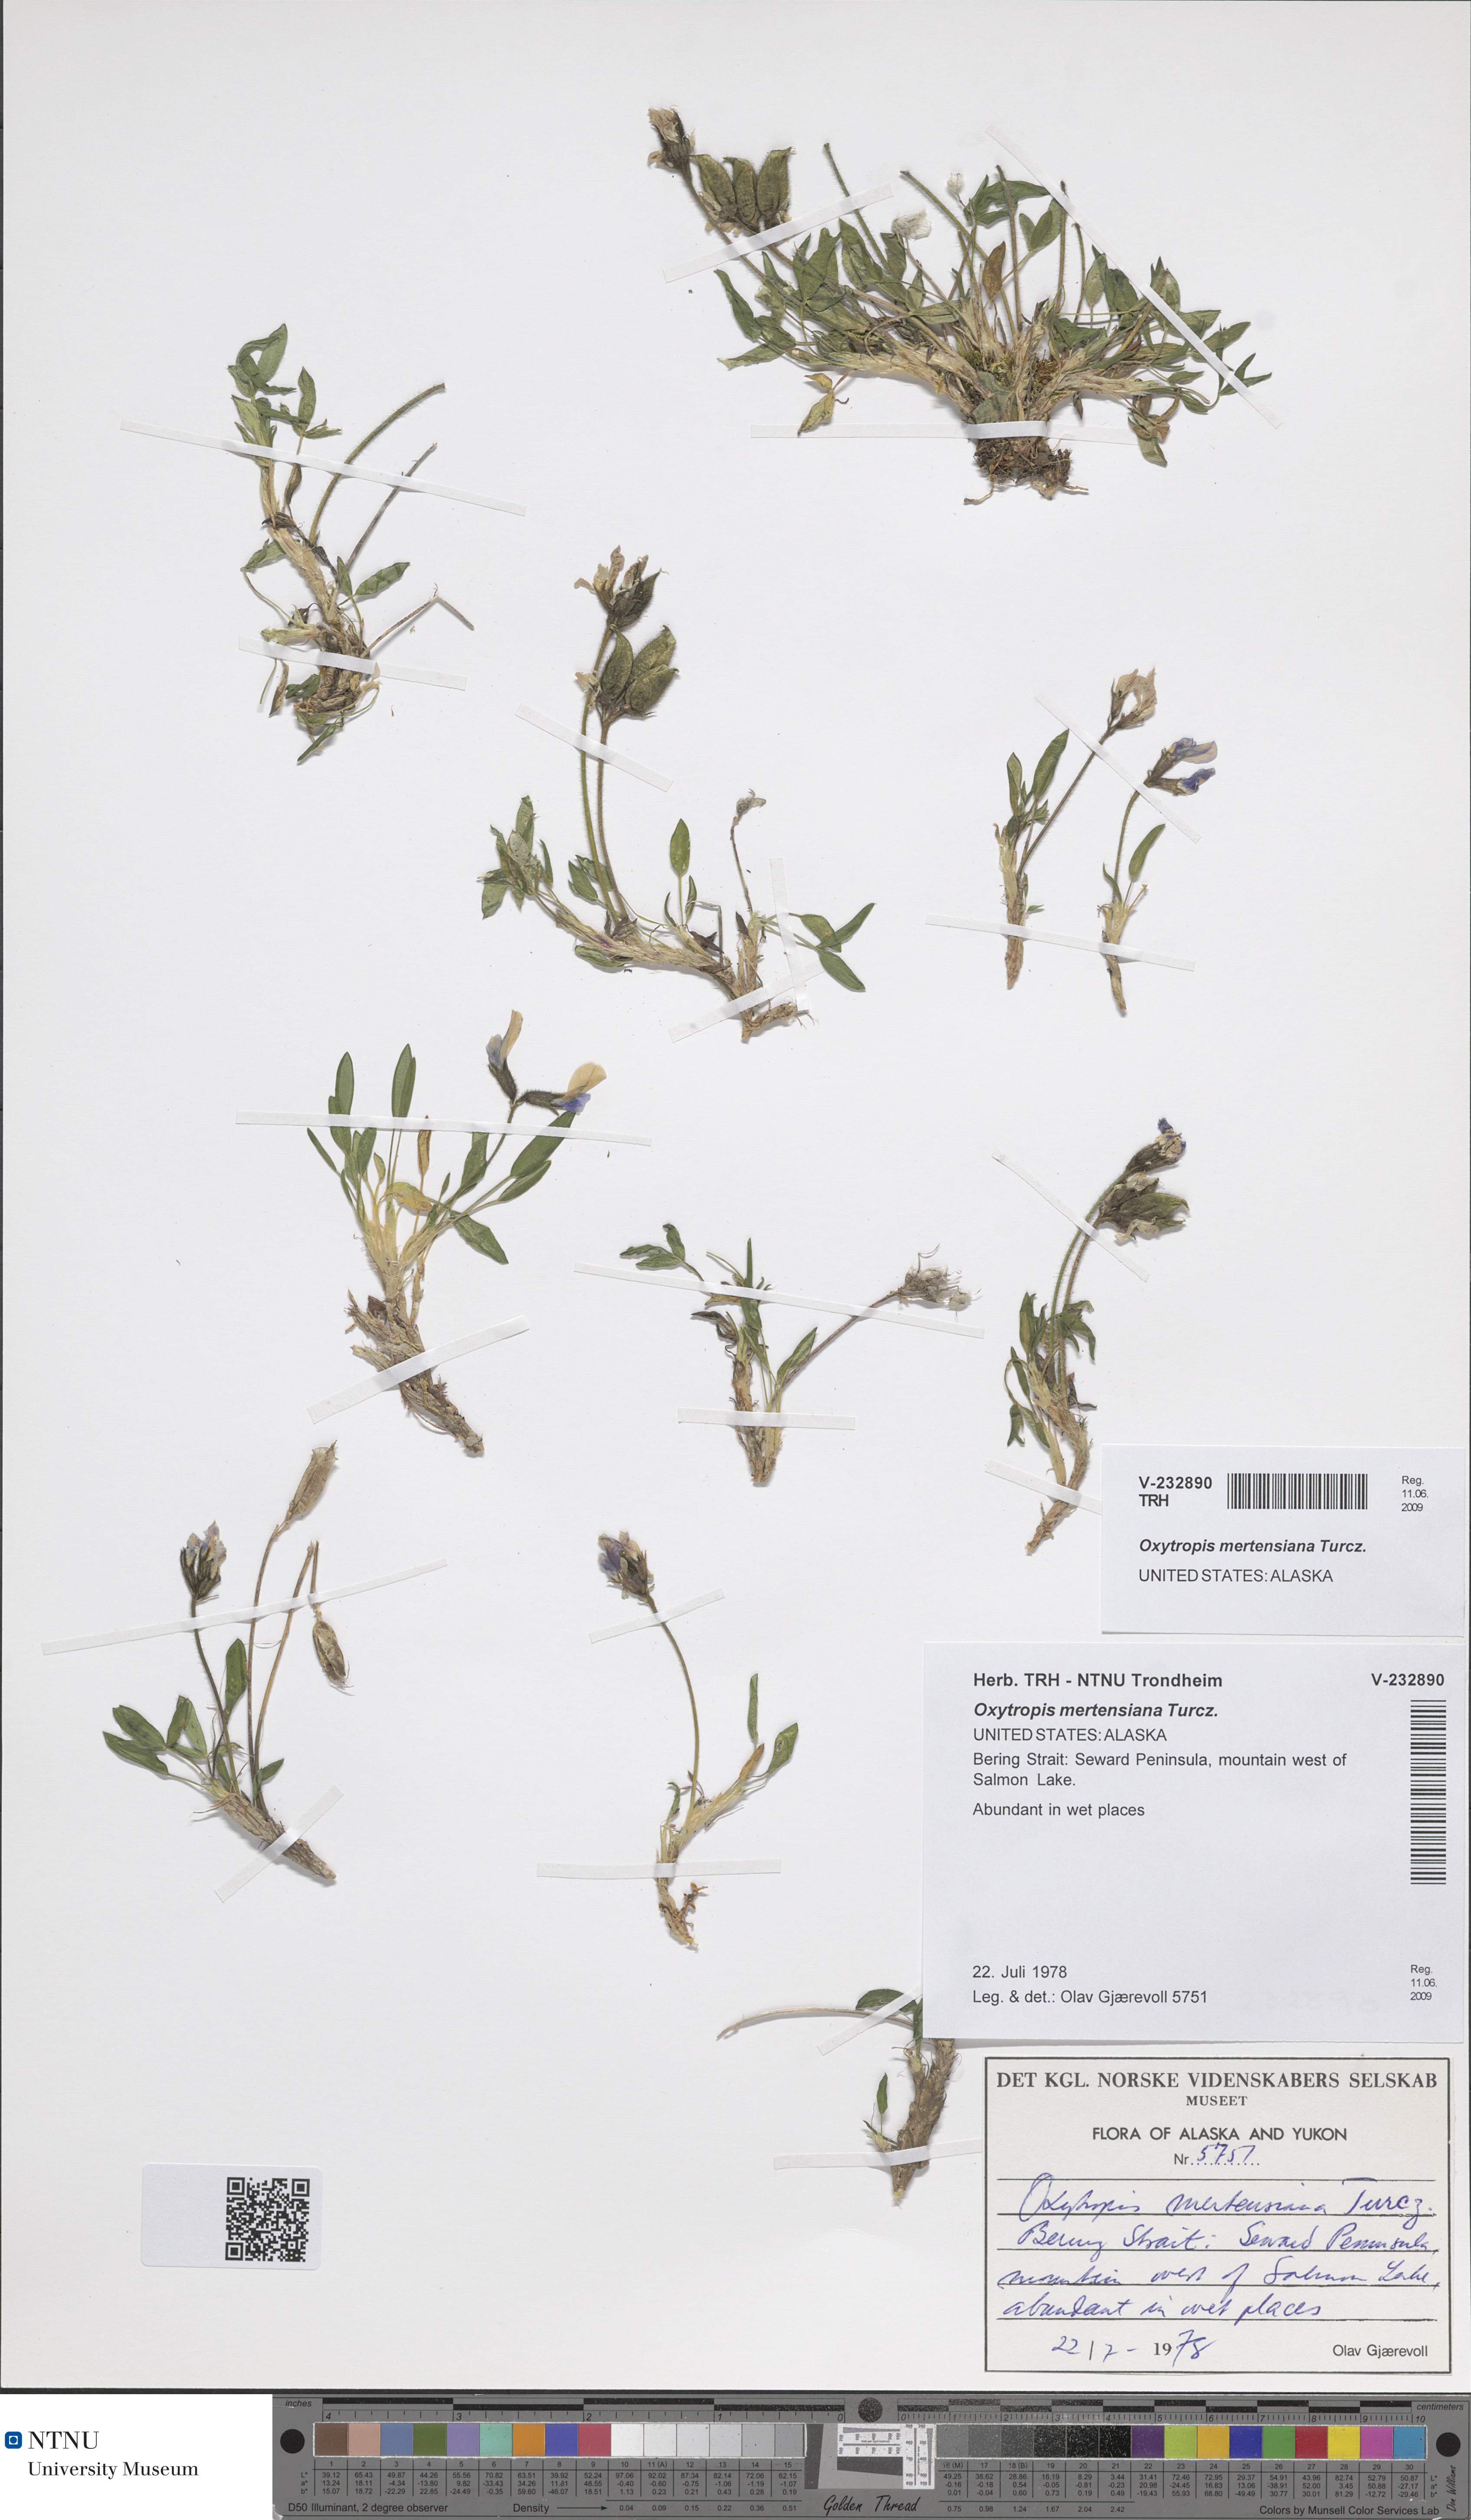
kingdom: Plantae
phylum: Tracheophyta
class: Magnoliopsida
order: Fabales
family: Fabaceae
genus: Oxytropis
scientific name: Oxytropis mertensiana
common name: Mertens' locoweed
